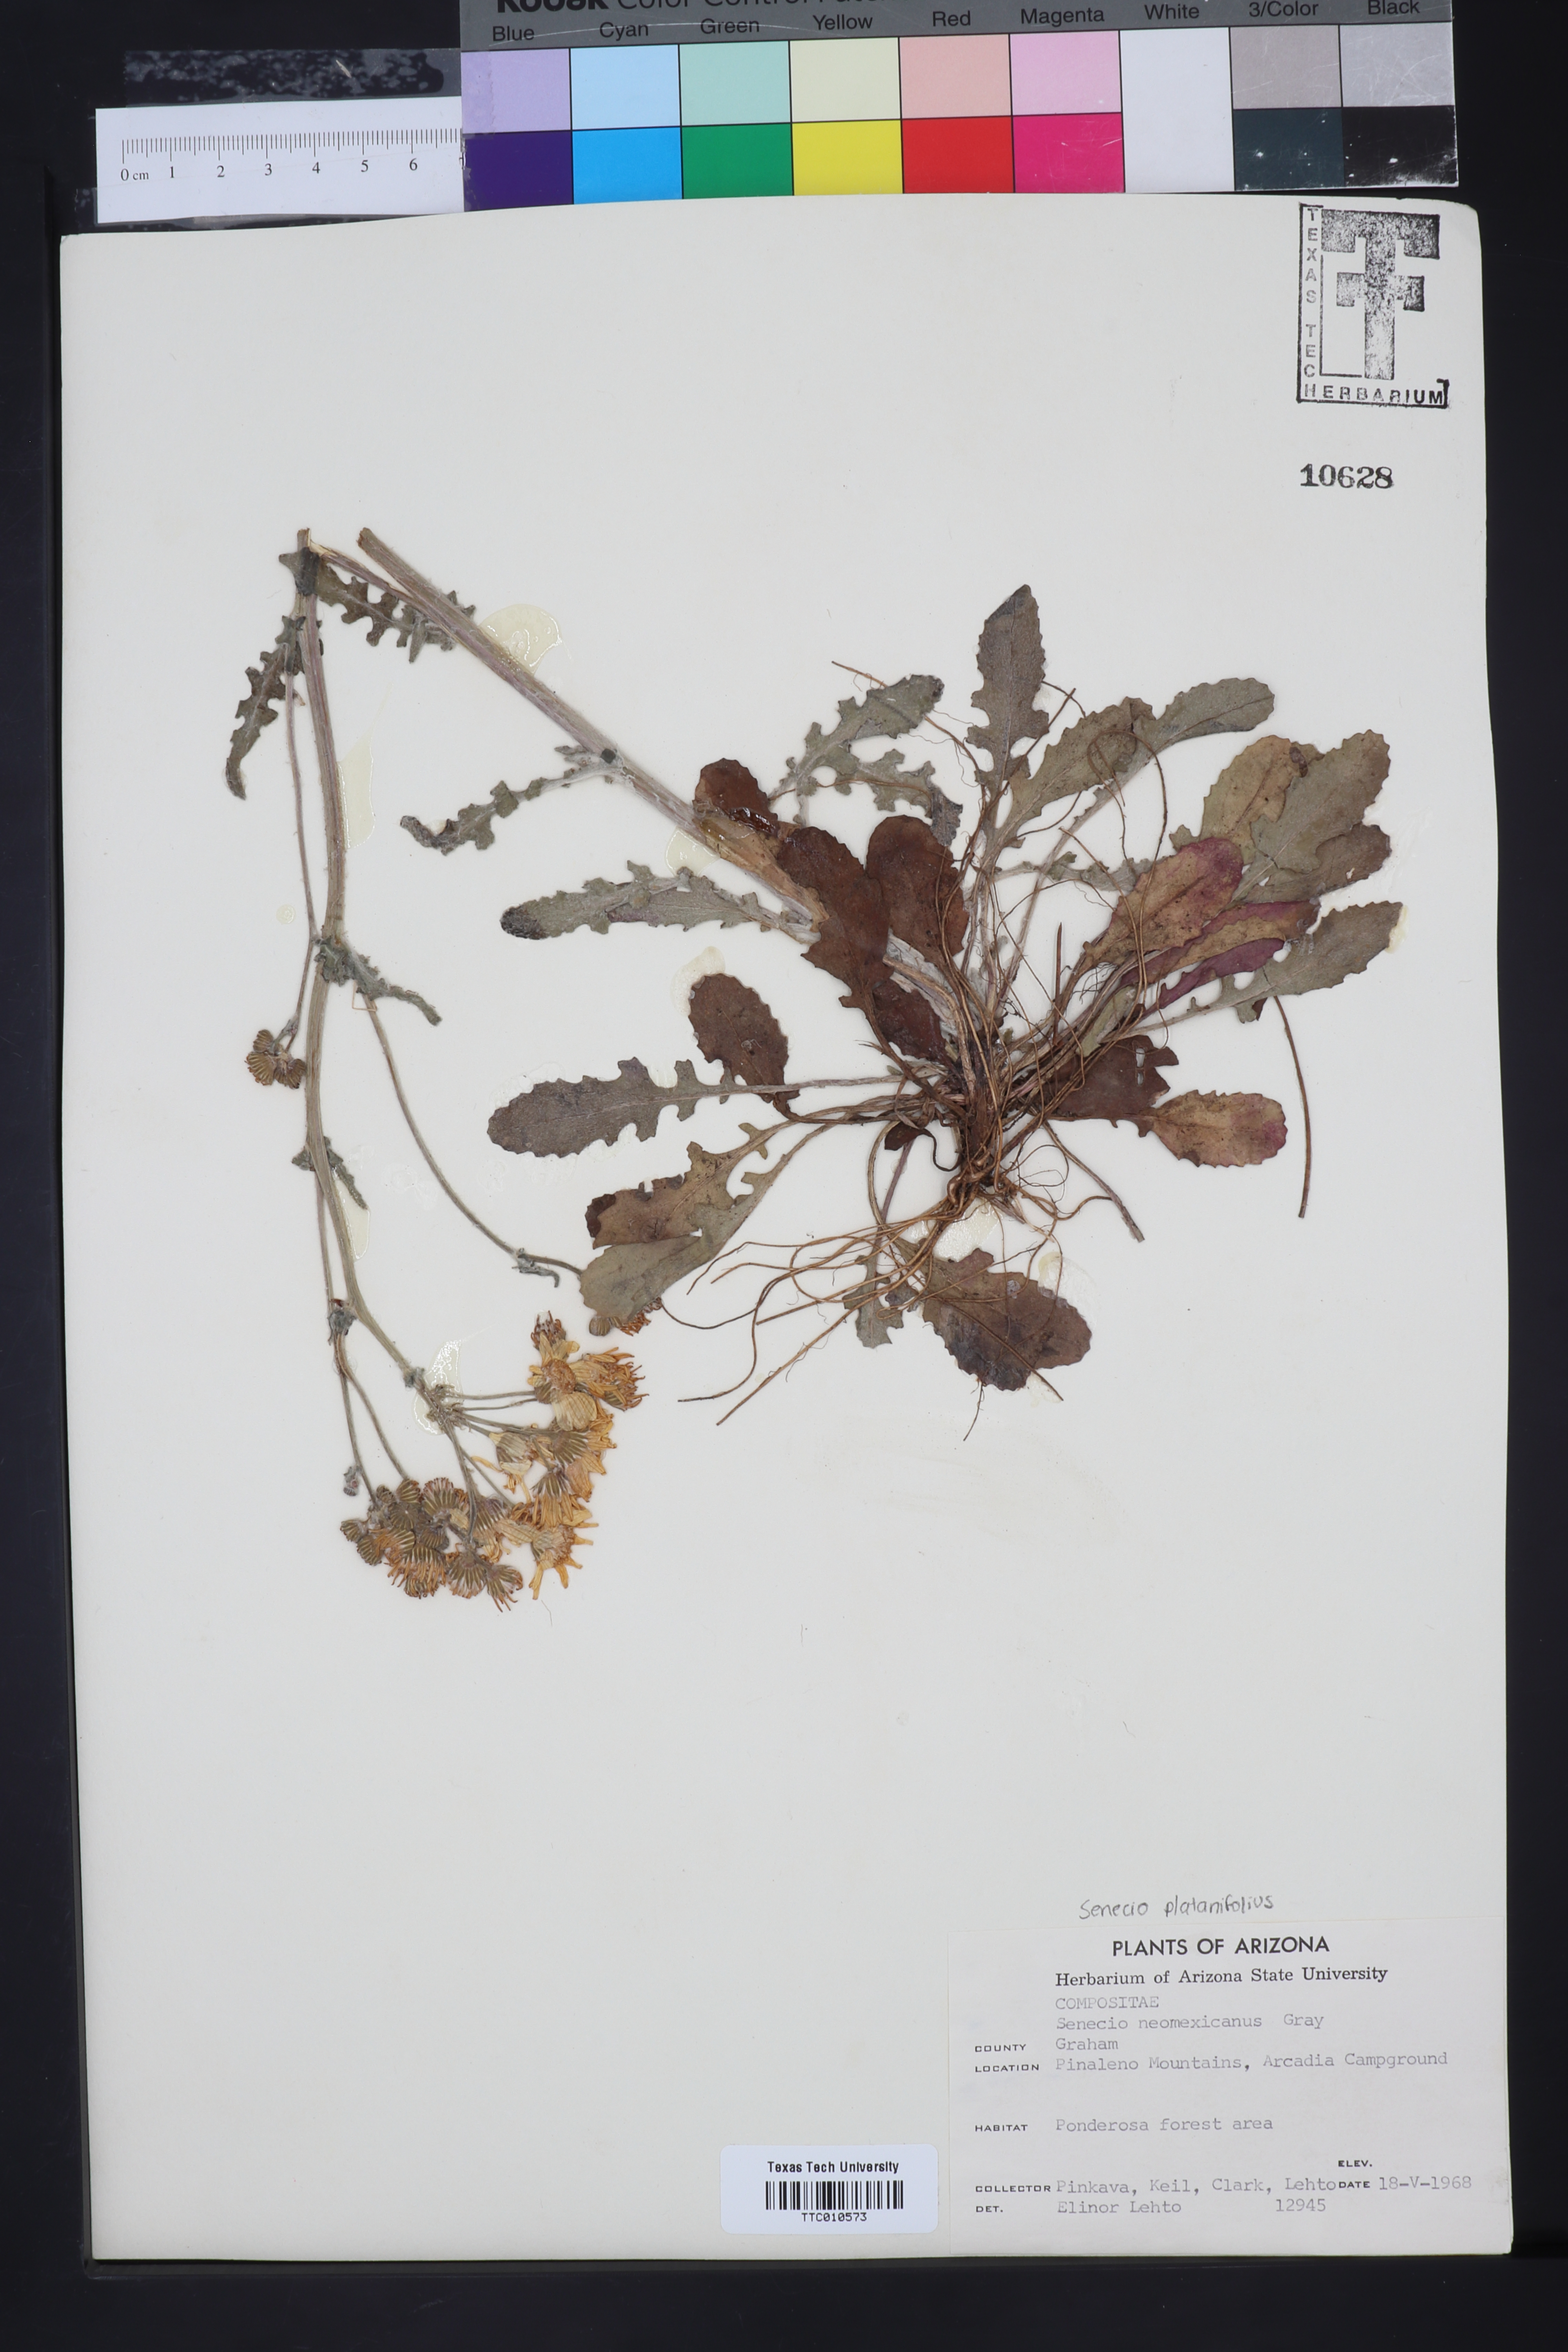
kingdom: Plantae
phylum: Tracheophyta
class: Magnoliopsida
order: Asterales
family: Asteraceae
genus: Packera
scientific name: Packera neomexicana
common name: New mexico butterweed
